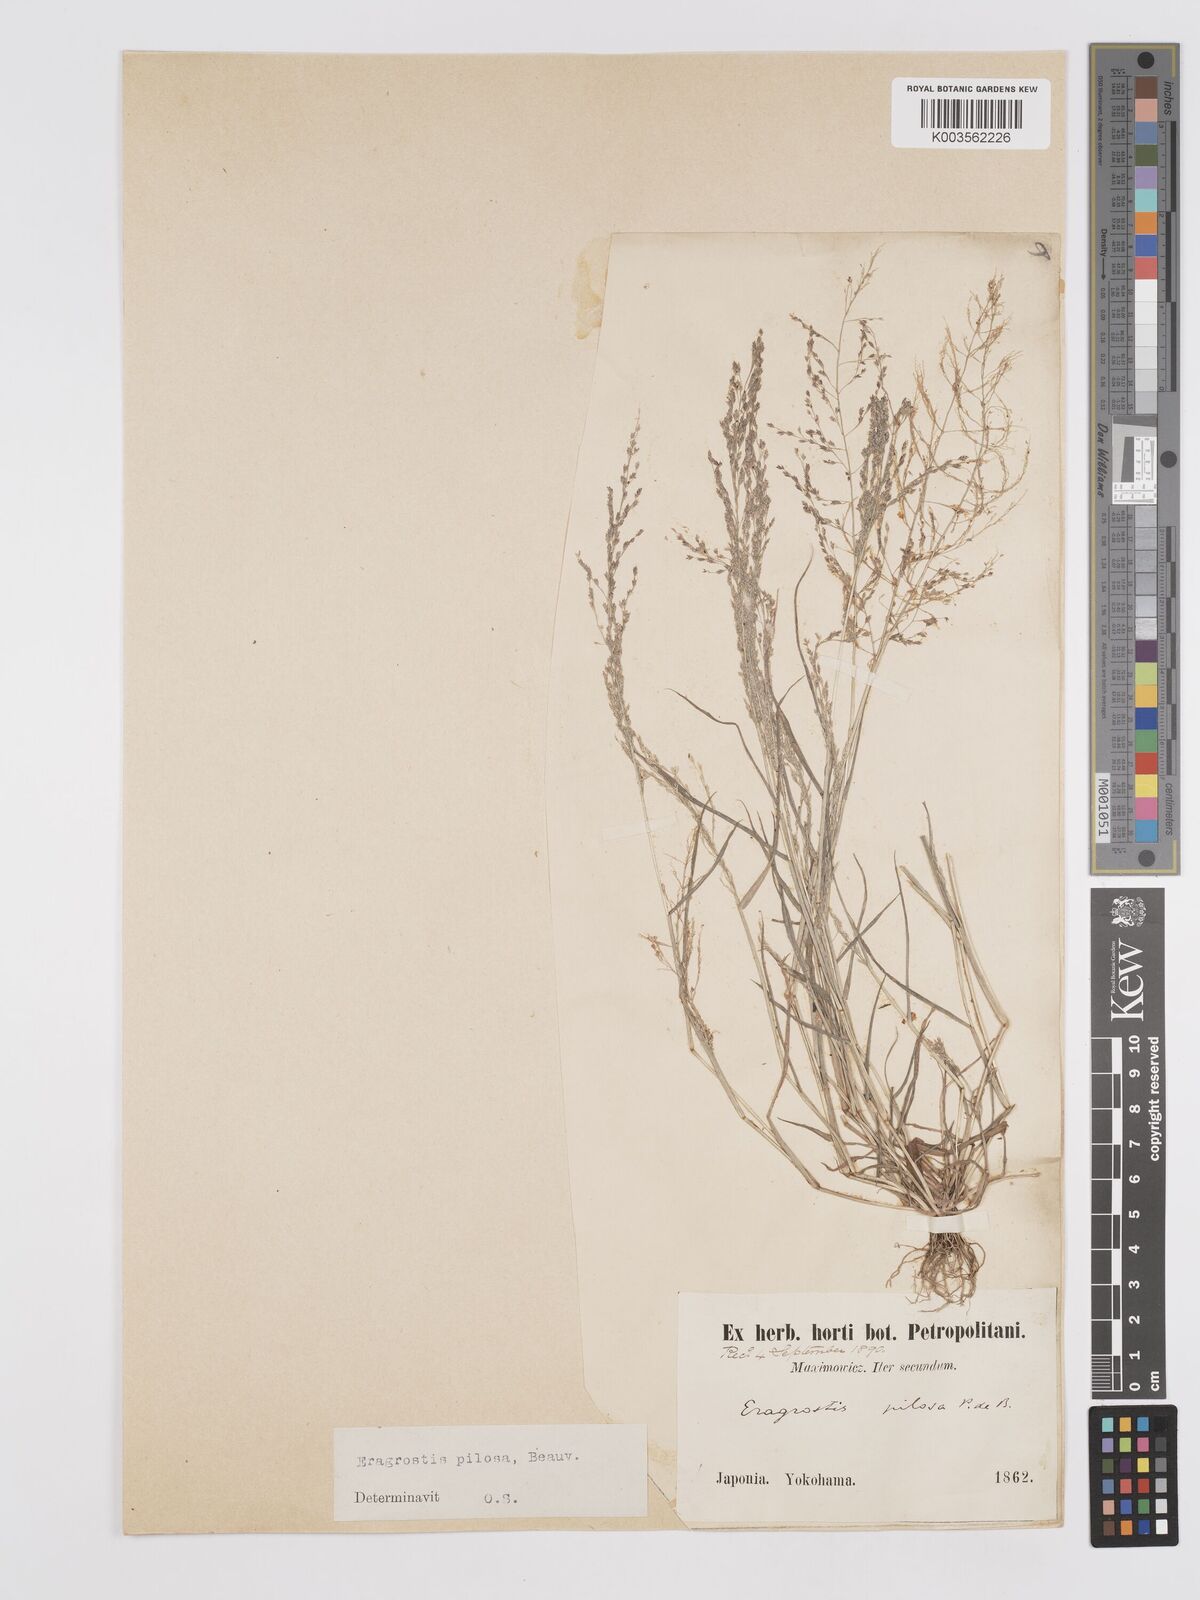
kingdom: Plantae
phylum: Tracheophyta
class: Liliopsida
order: Poales
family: Poaceae
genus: Eragrostis
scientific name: Eragrostis pilosa
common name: Indian lovegrass
